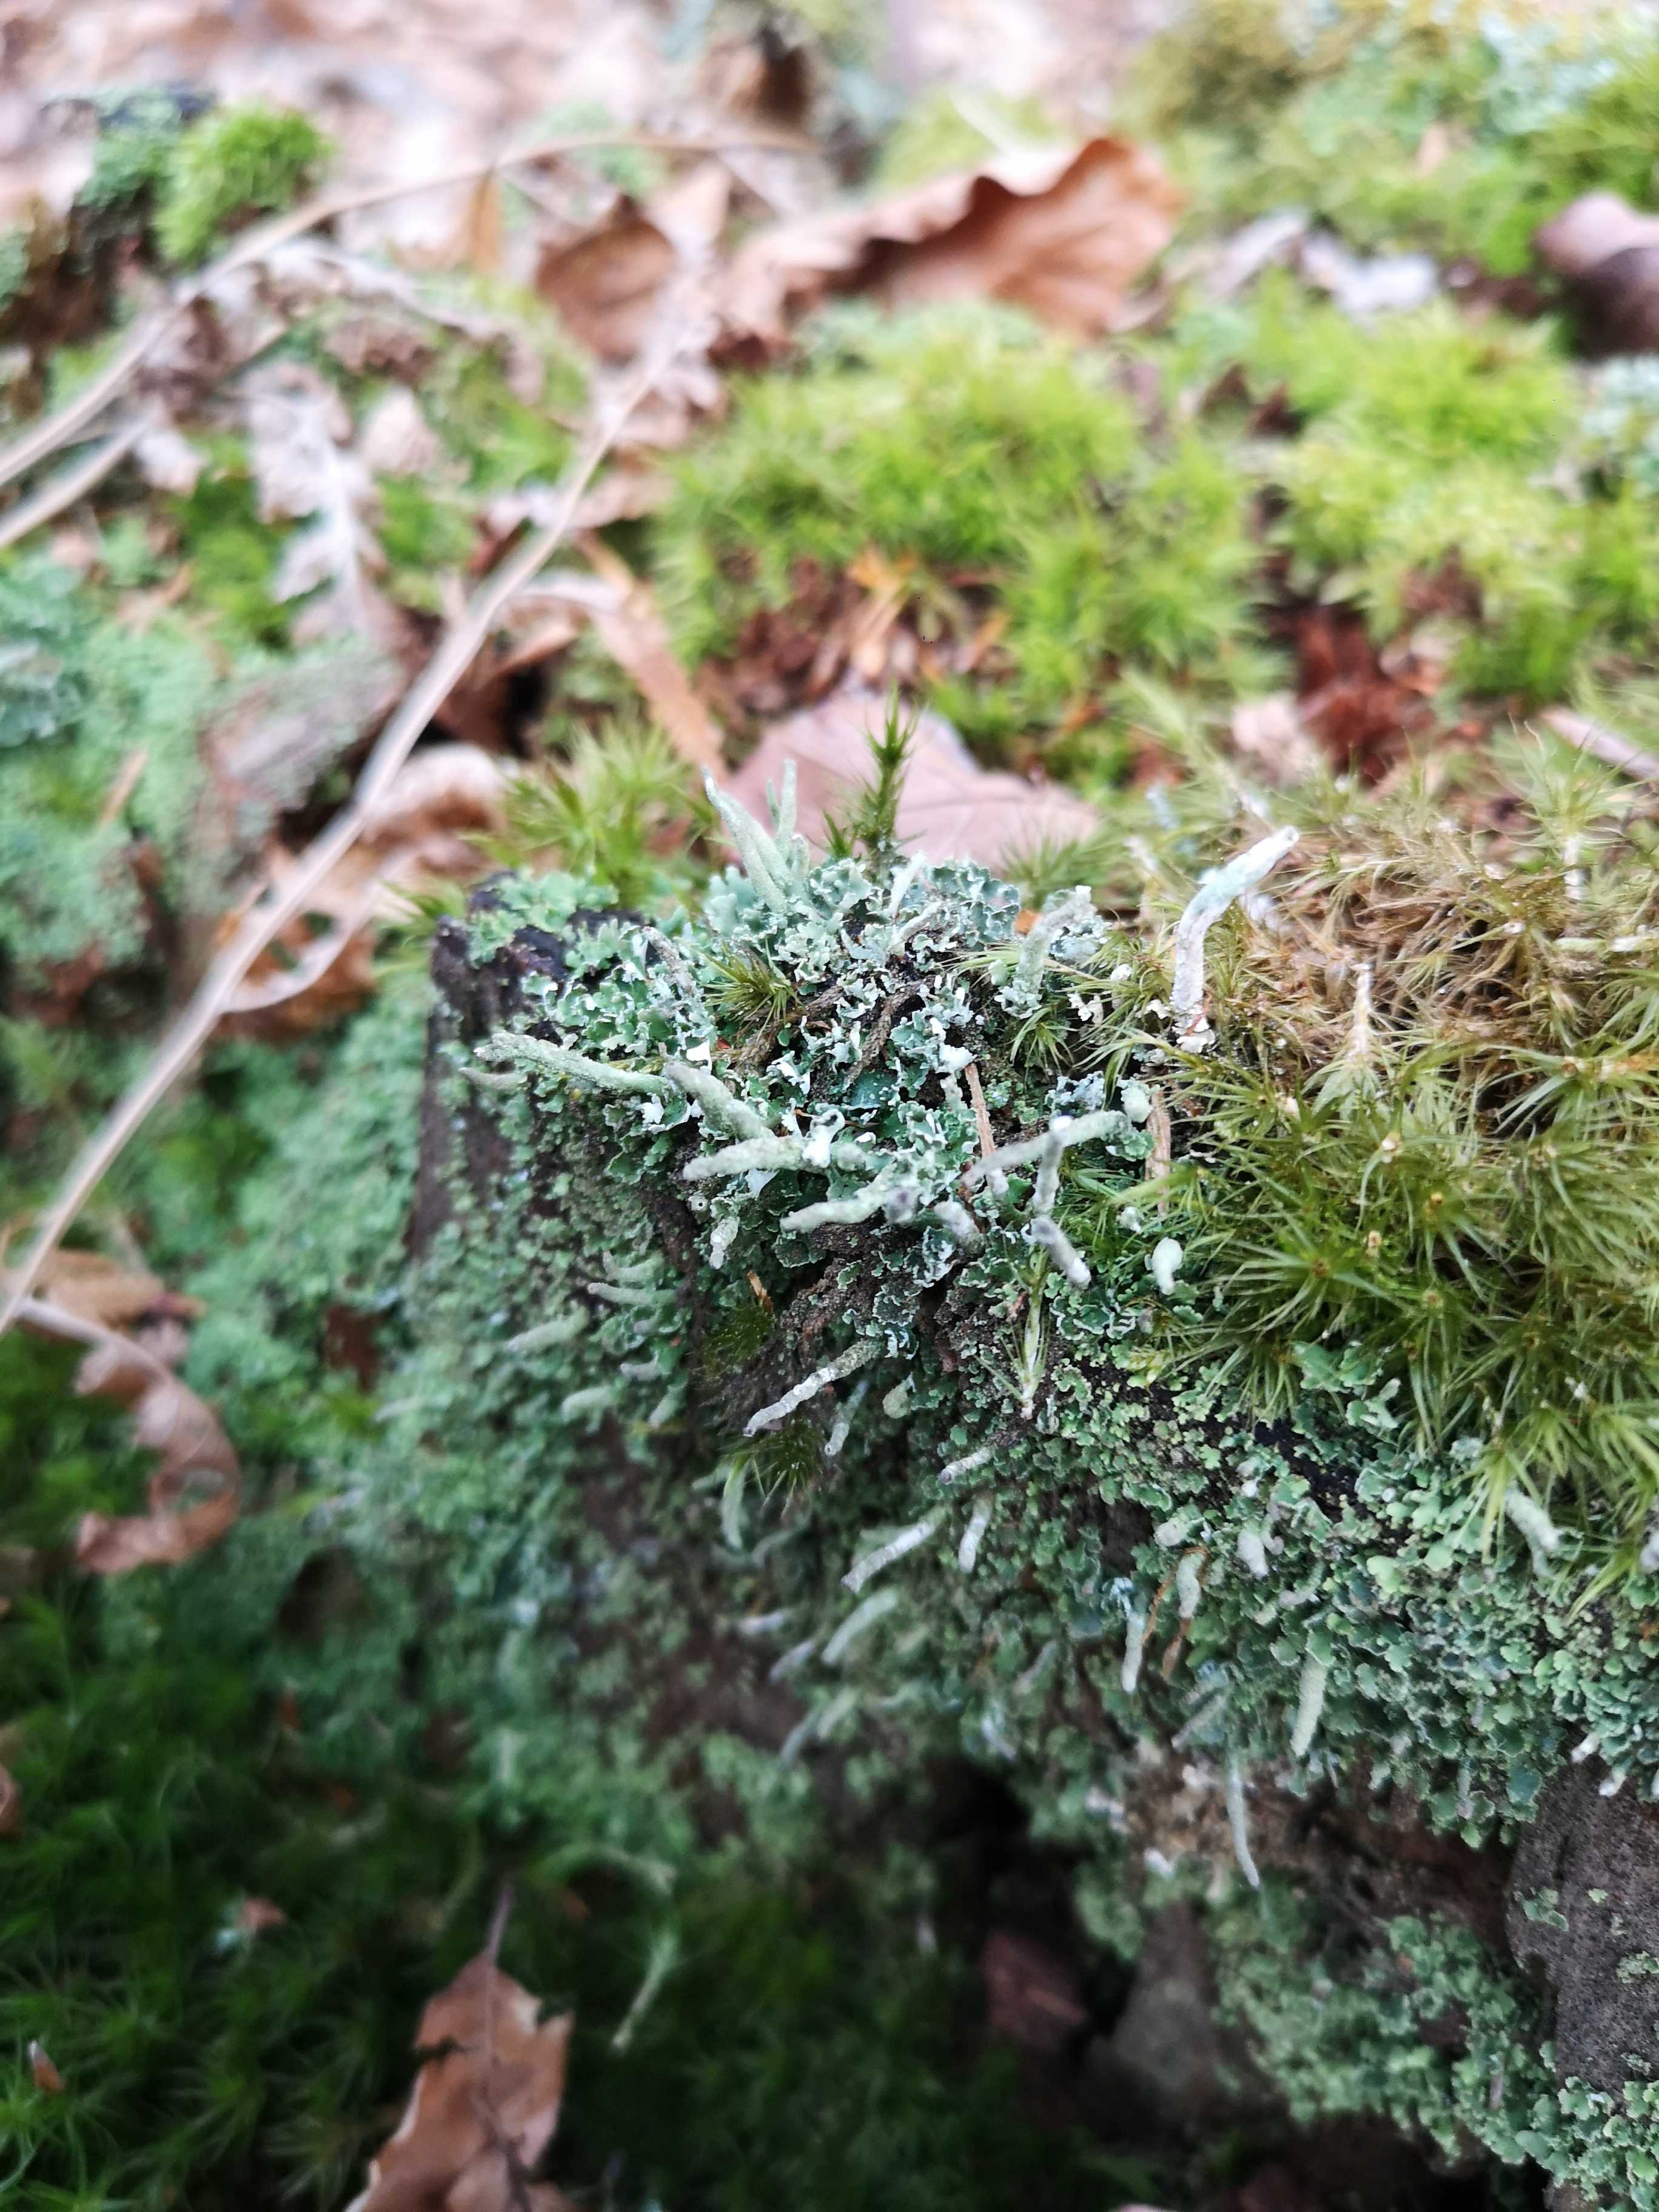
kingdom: Fungi
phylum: Ascomycota
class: Lecanoromycetes
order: Lecanorales
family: Cladoniaceae
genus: Cladonia
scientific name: Cladonia
